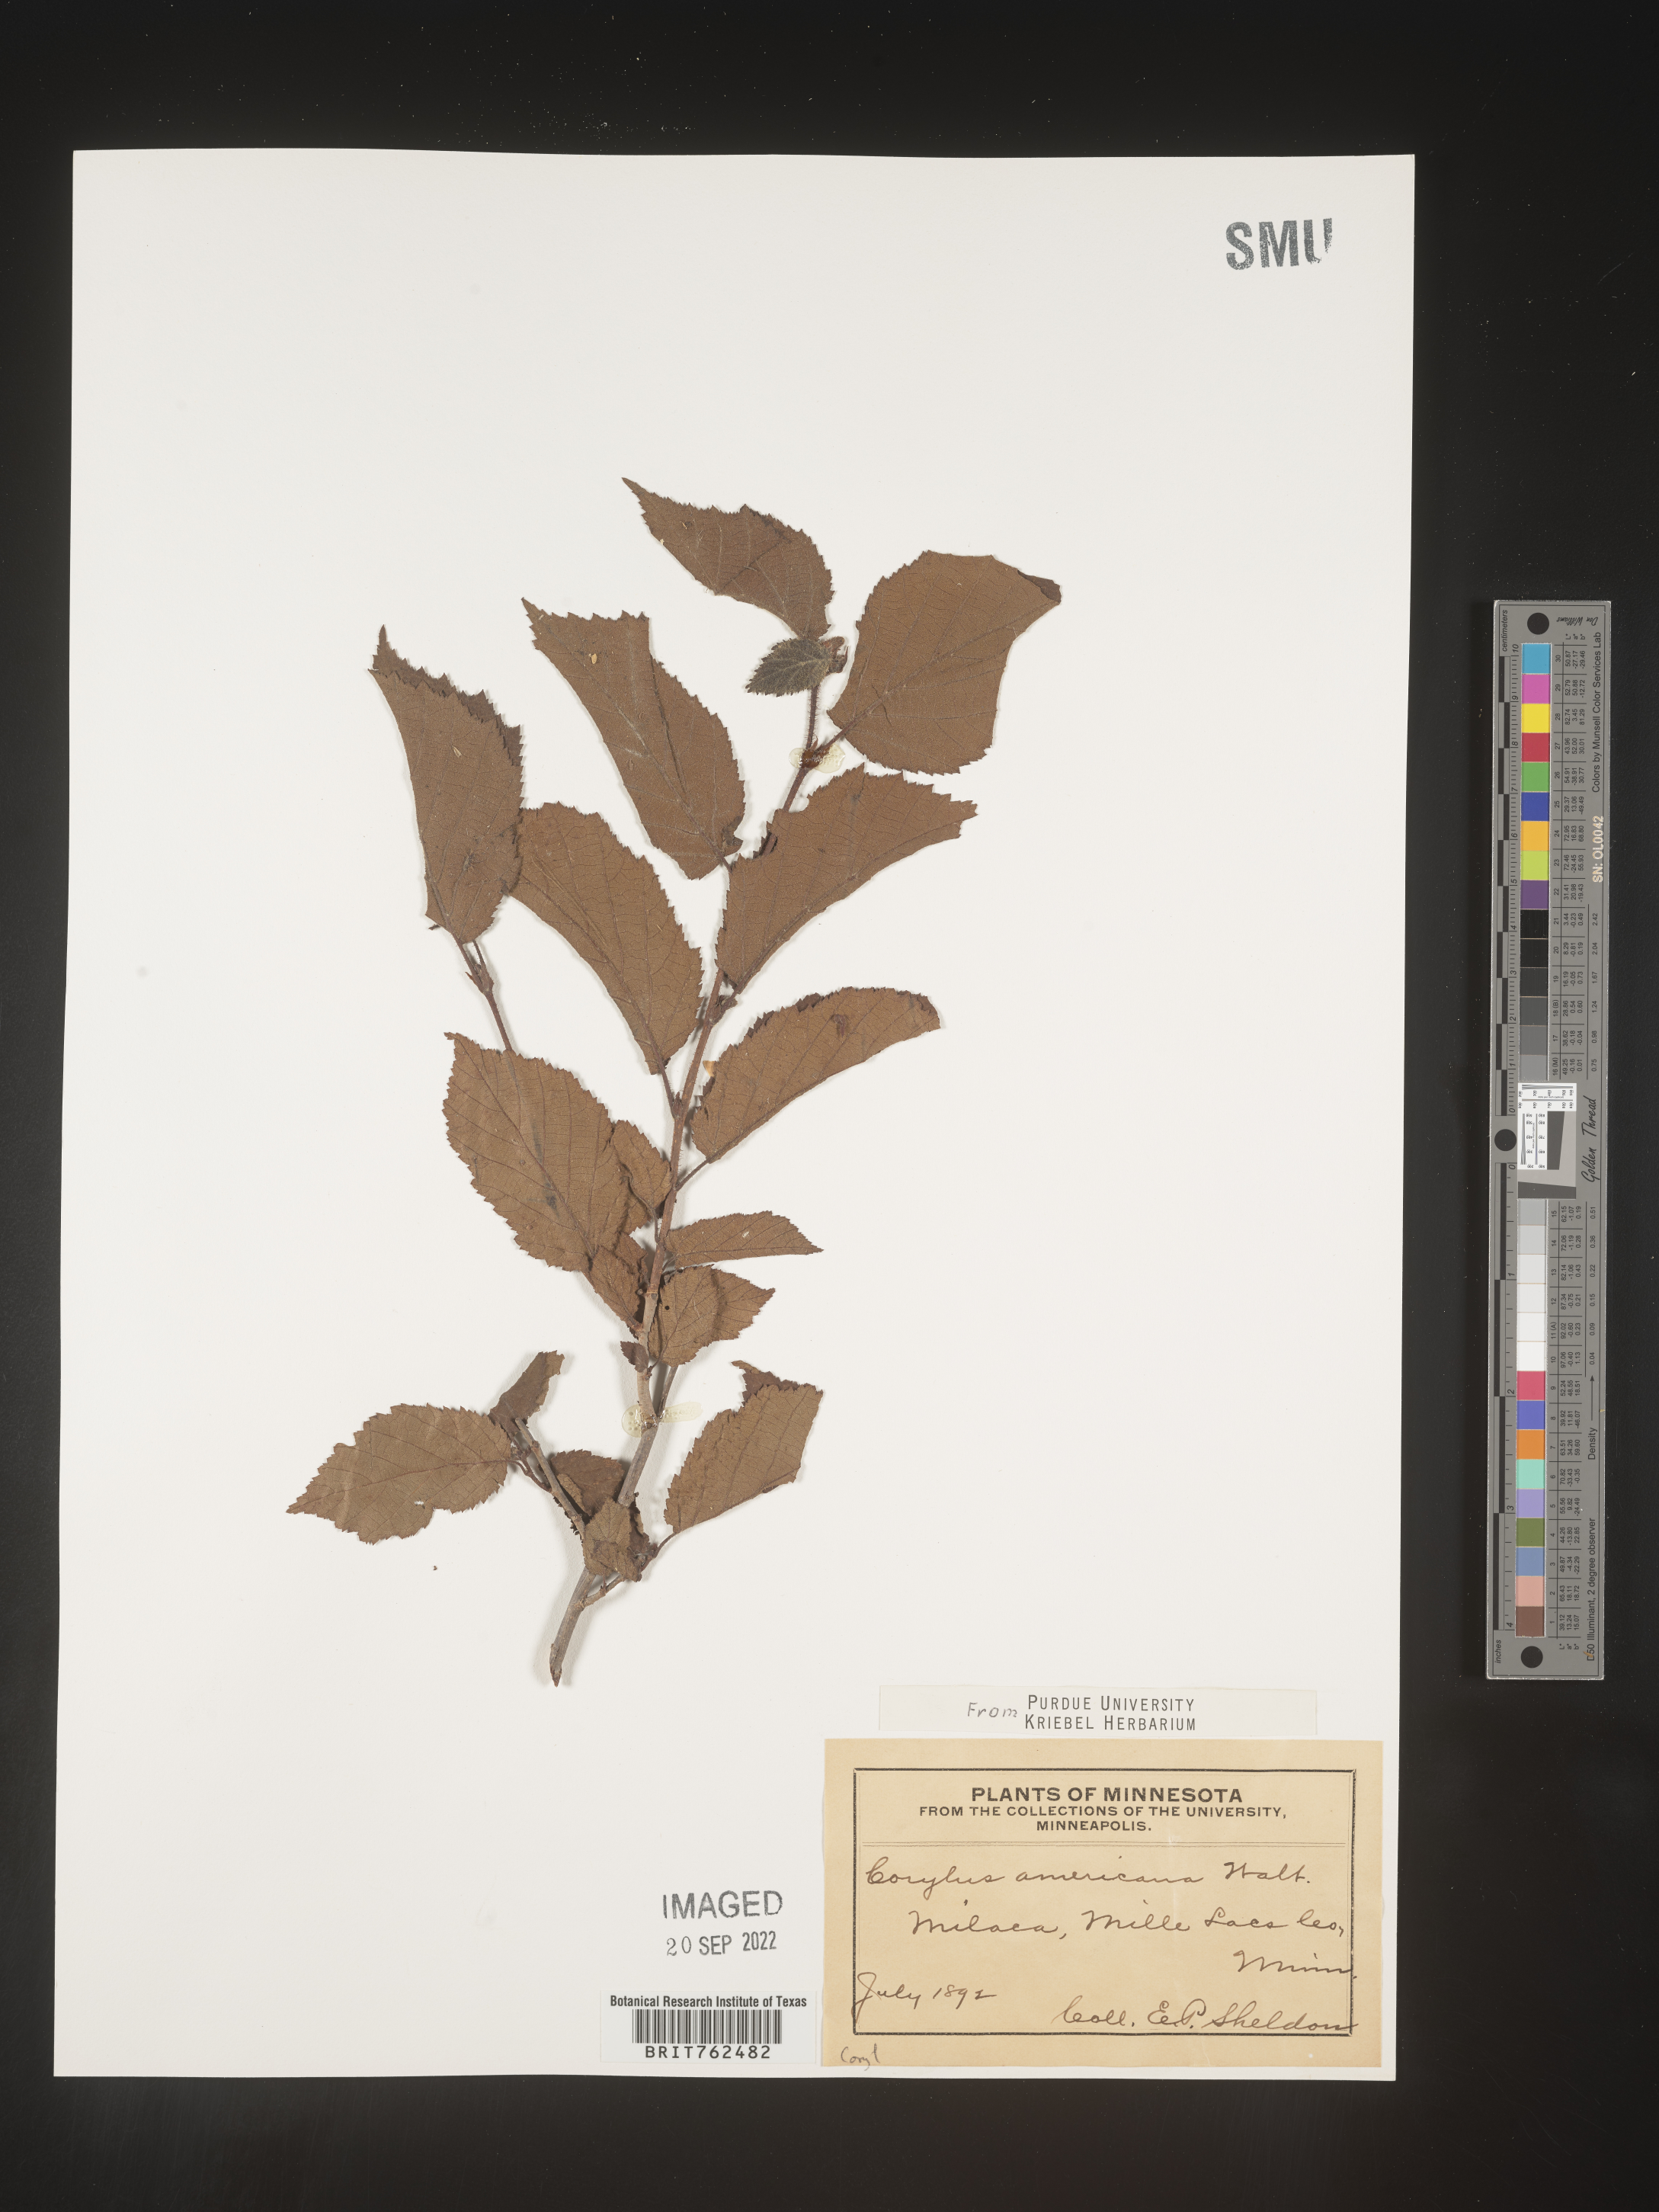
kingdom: Plantae
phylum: Tracheophyta
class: Magnoliopsida
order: Fagales
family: Betulaceae
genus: Corylus
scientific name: Corylus americana
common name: American hazel
